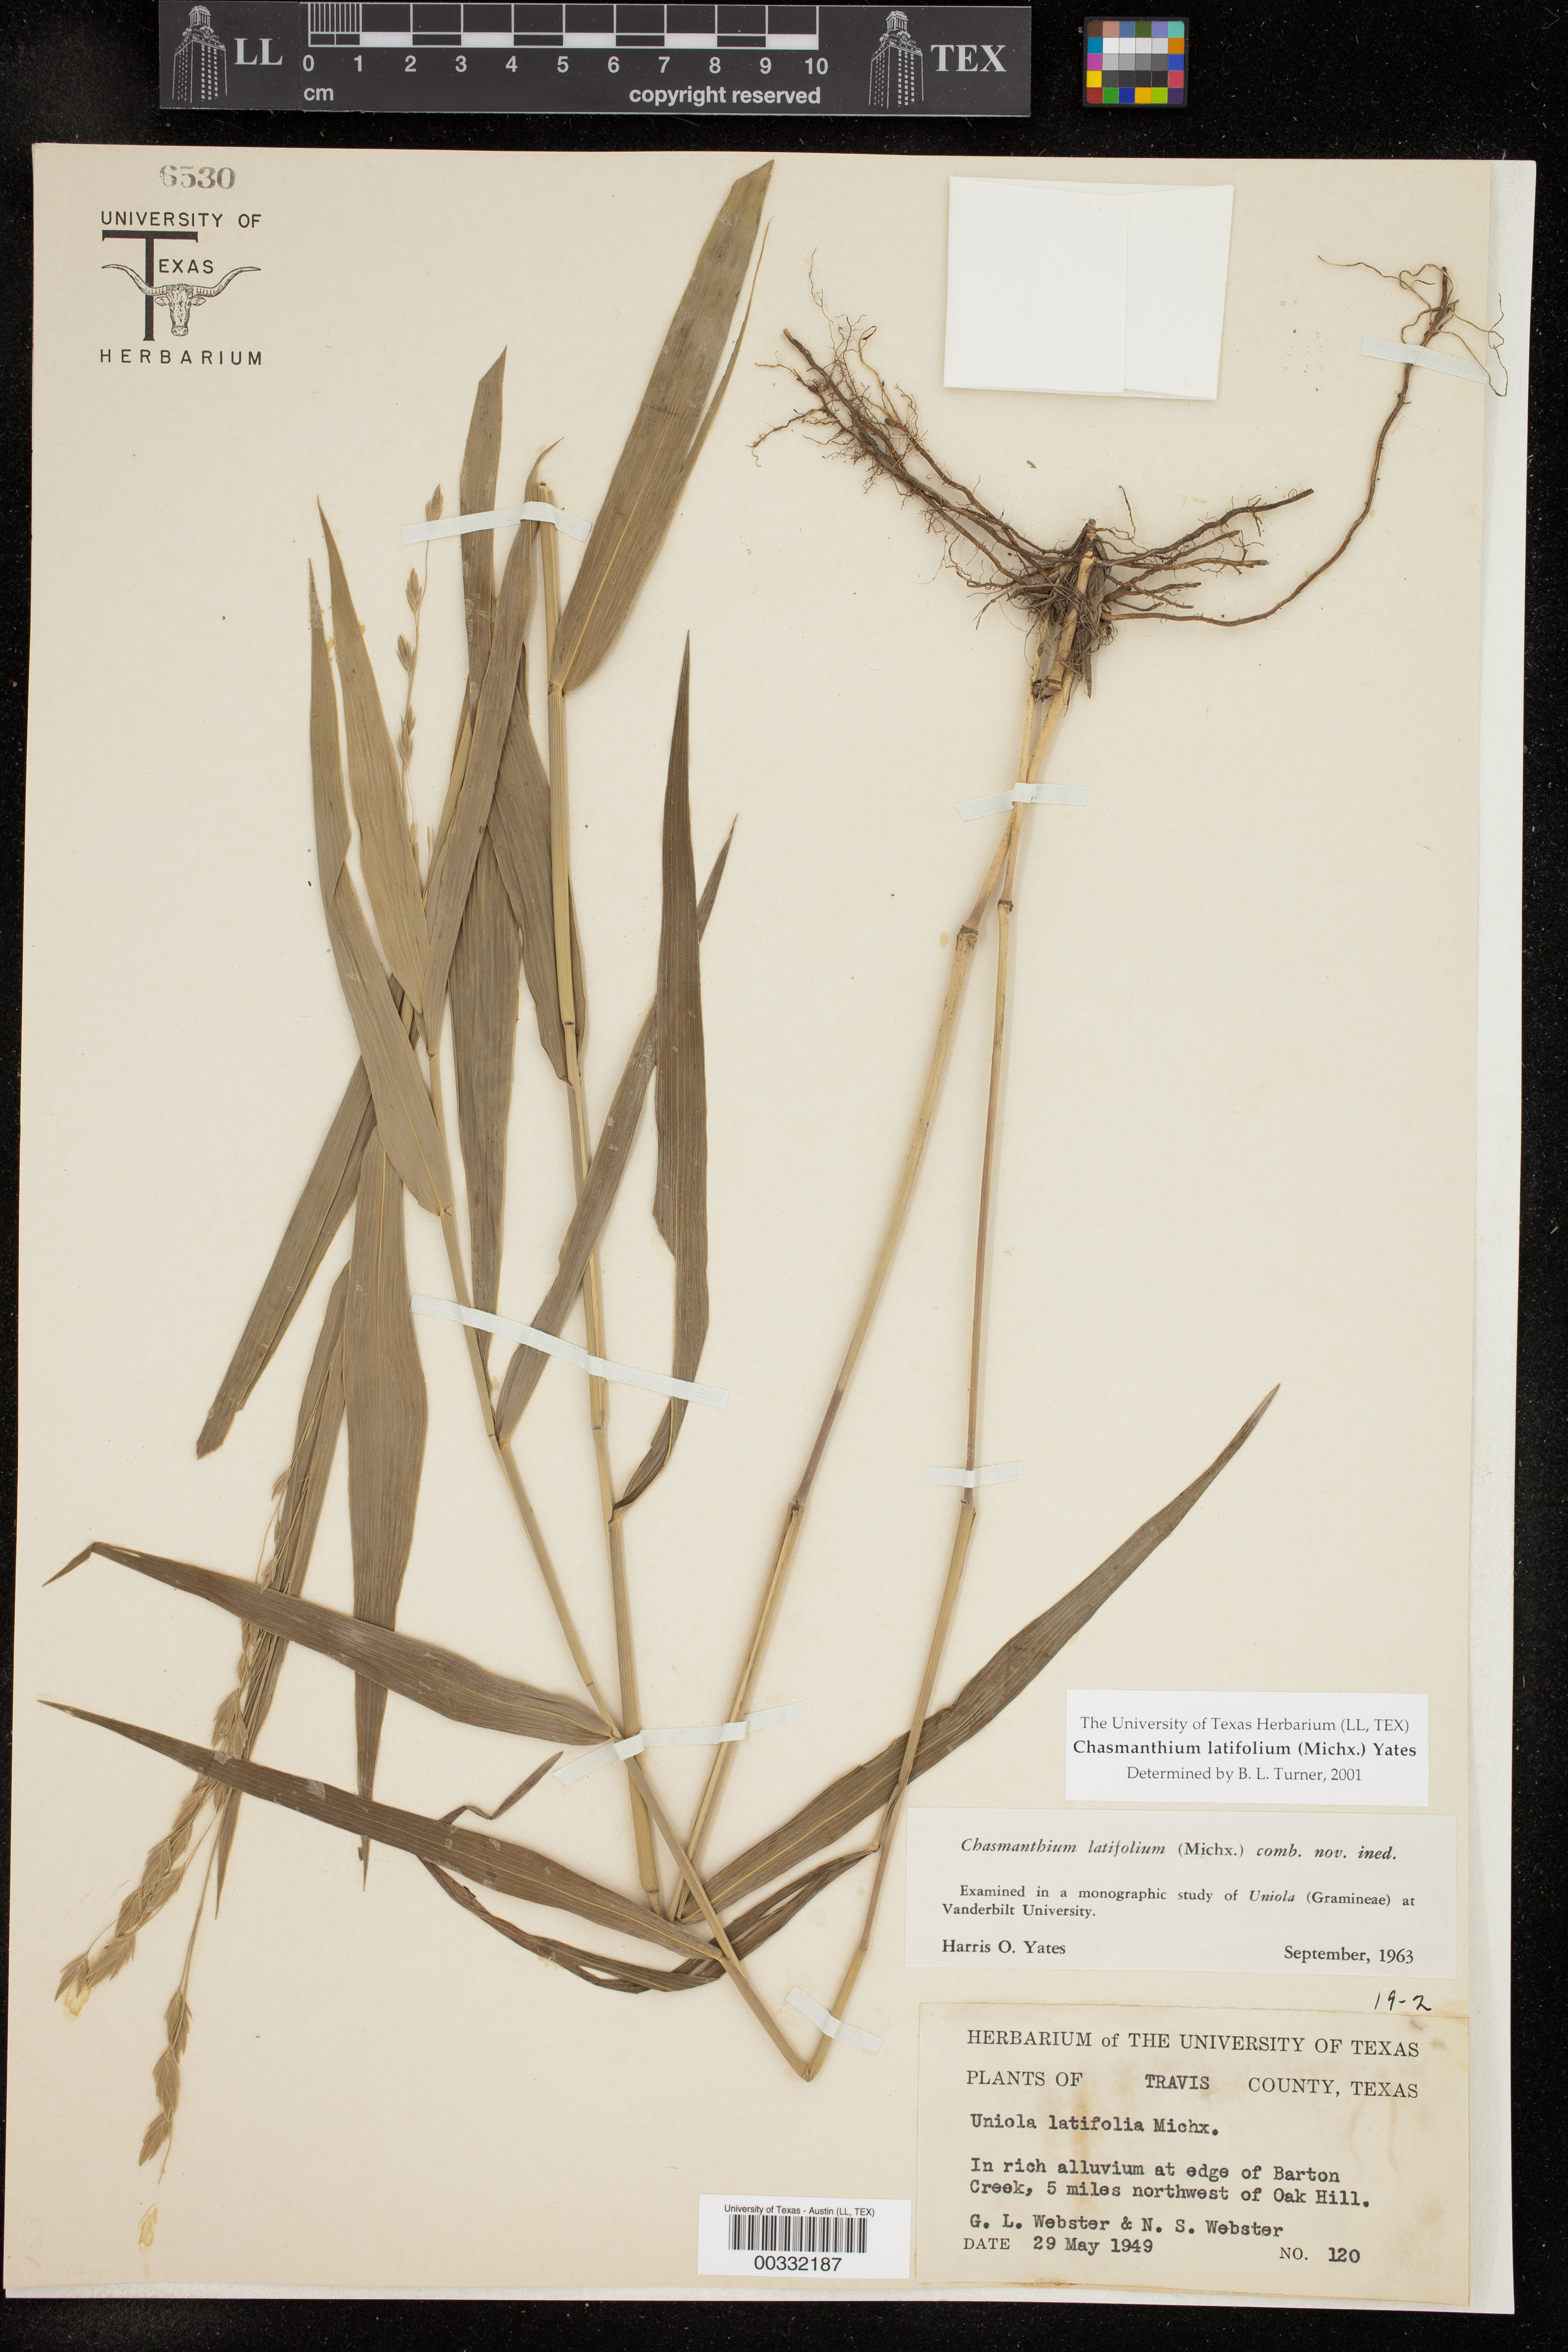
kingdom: Plantae
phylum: Tracheophyta
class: Liliopsida
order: Poales
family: Poaceae
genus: Chasmanthium
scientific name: Chasmanthium latifolium
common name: Broad-leaved chasmanthium
